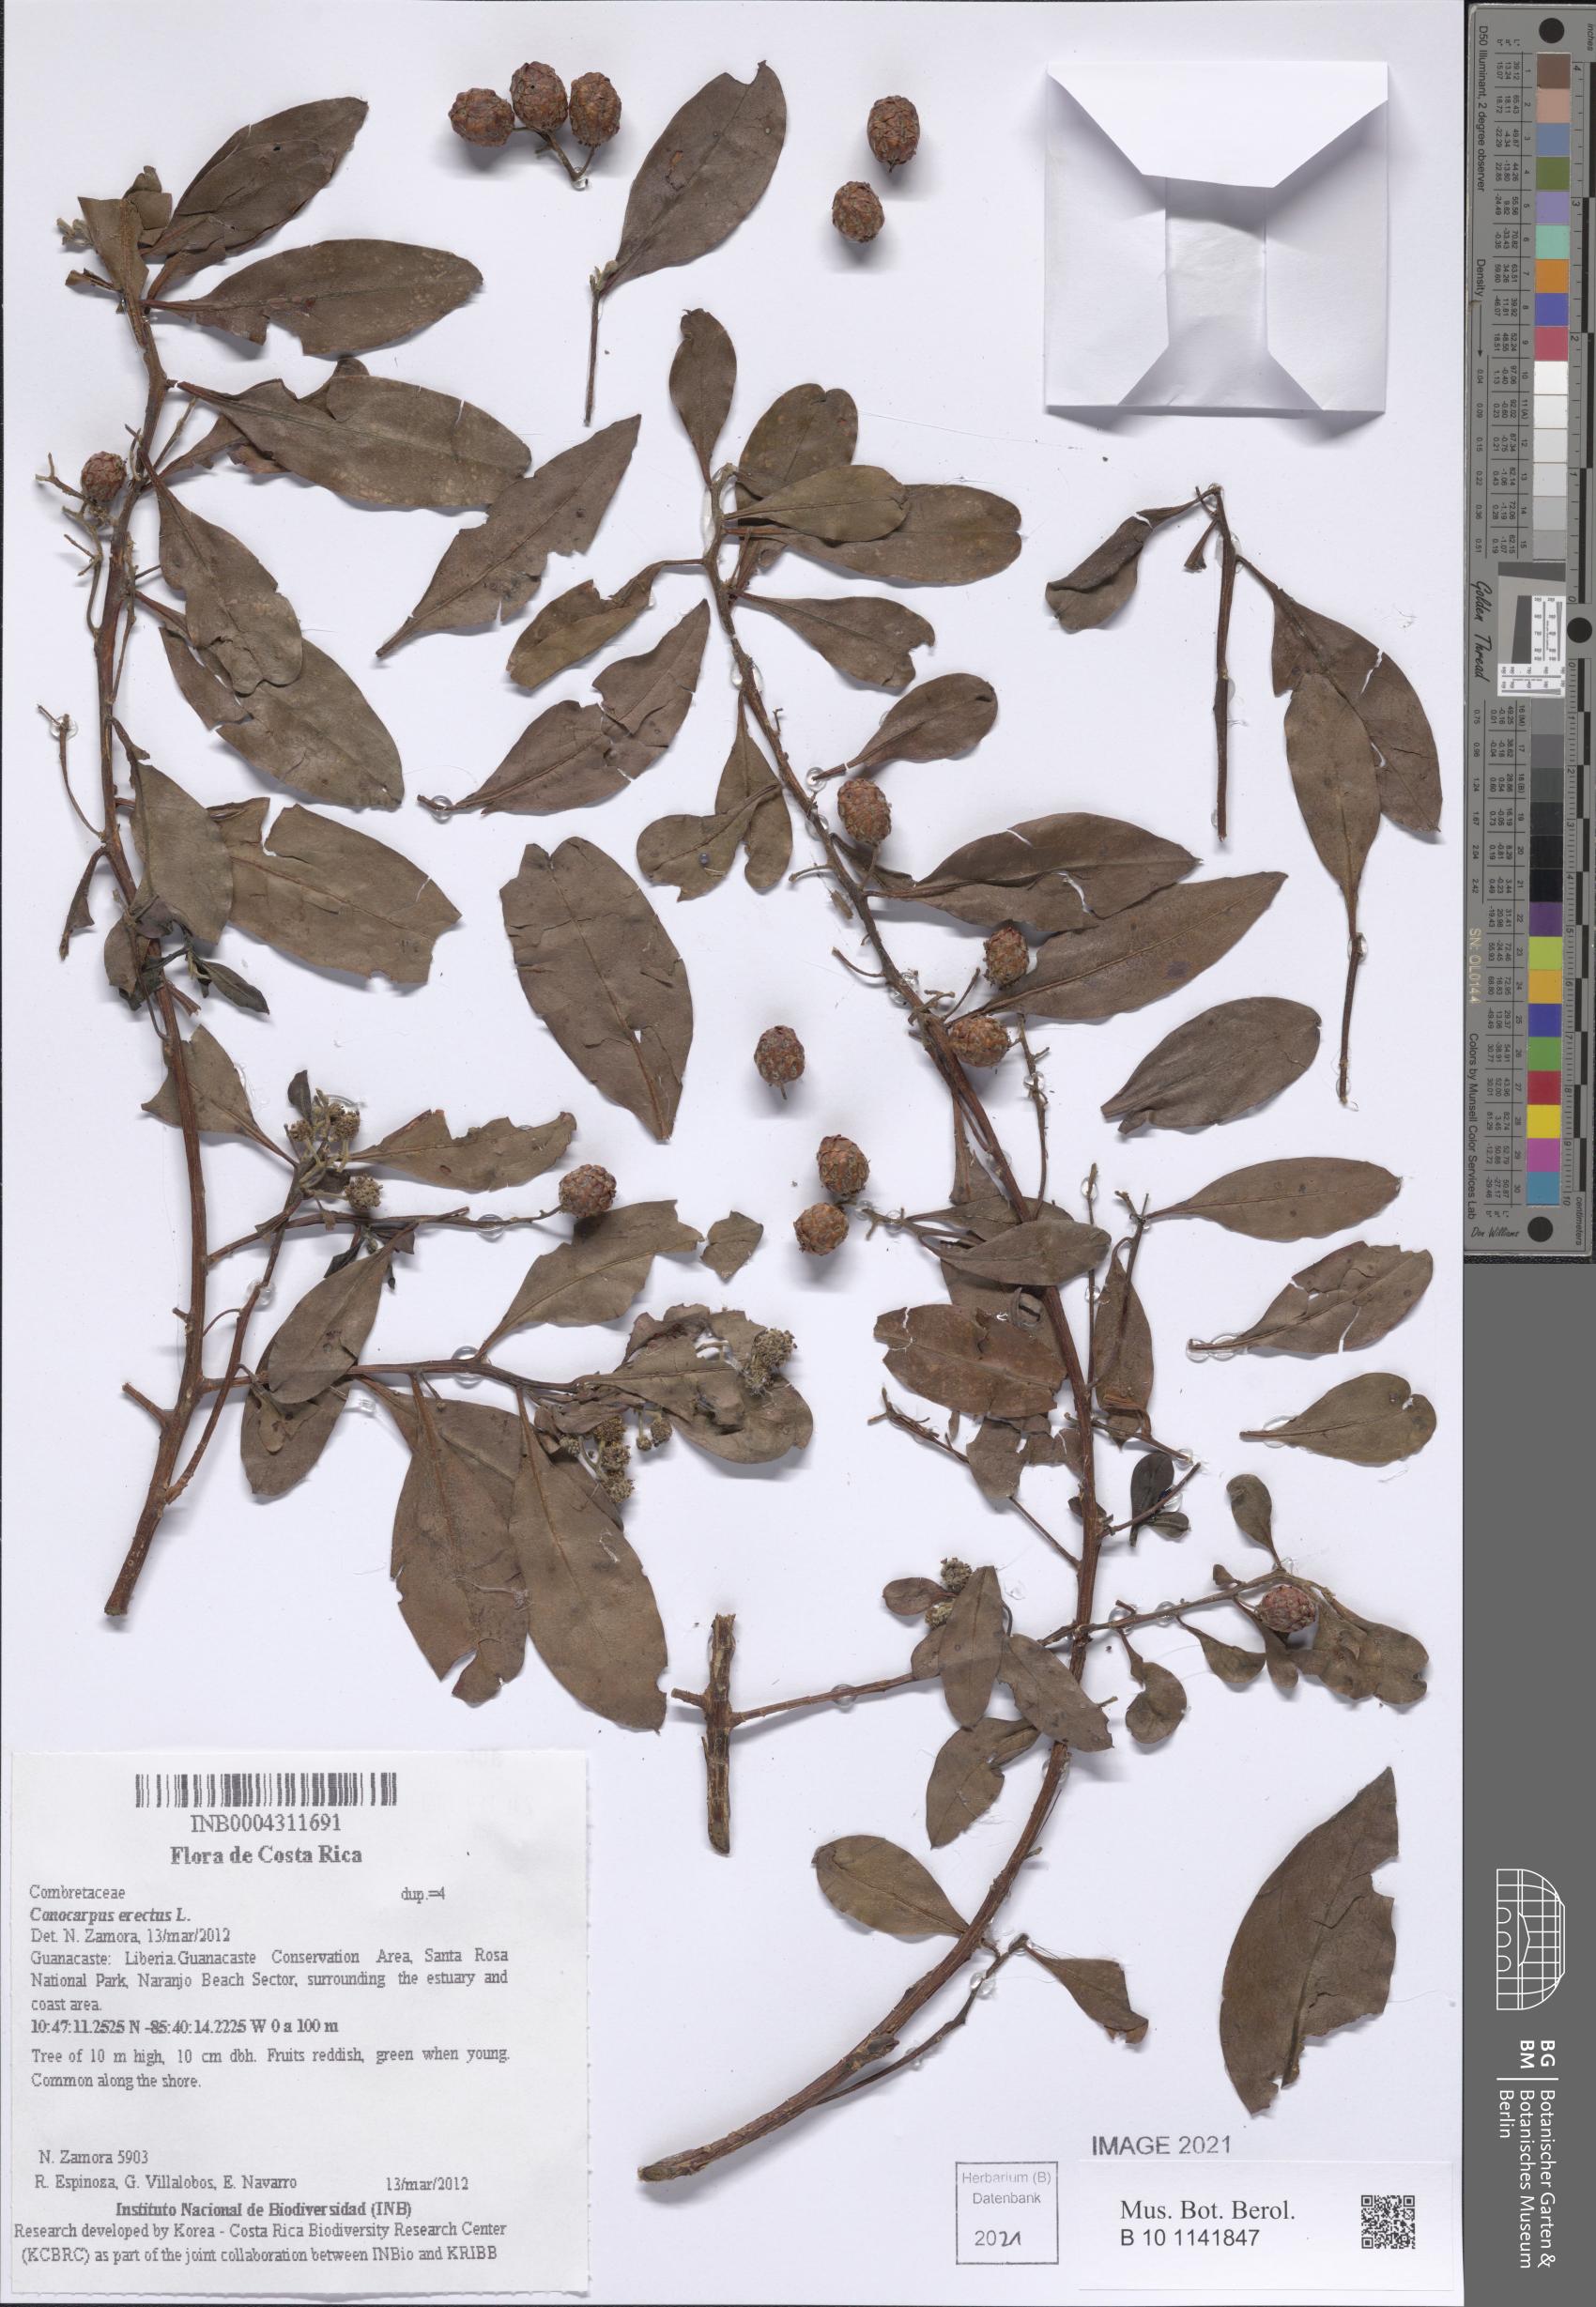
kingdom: Plantae
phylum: Tracheophyta
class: Magnoliopsida
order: Myrtales
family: Combretaceae
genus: Conocarpus
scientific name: Conocarpus erectus
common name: Button mangrove
